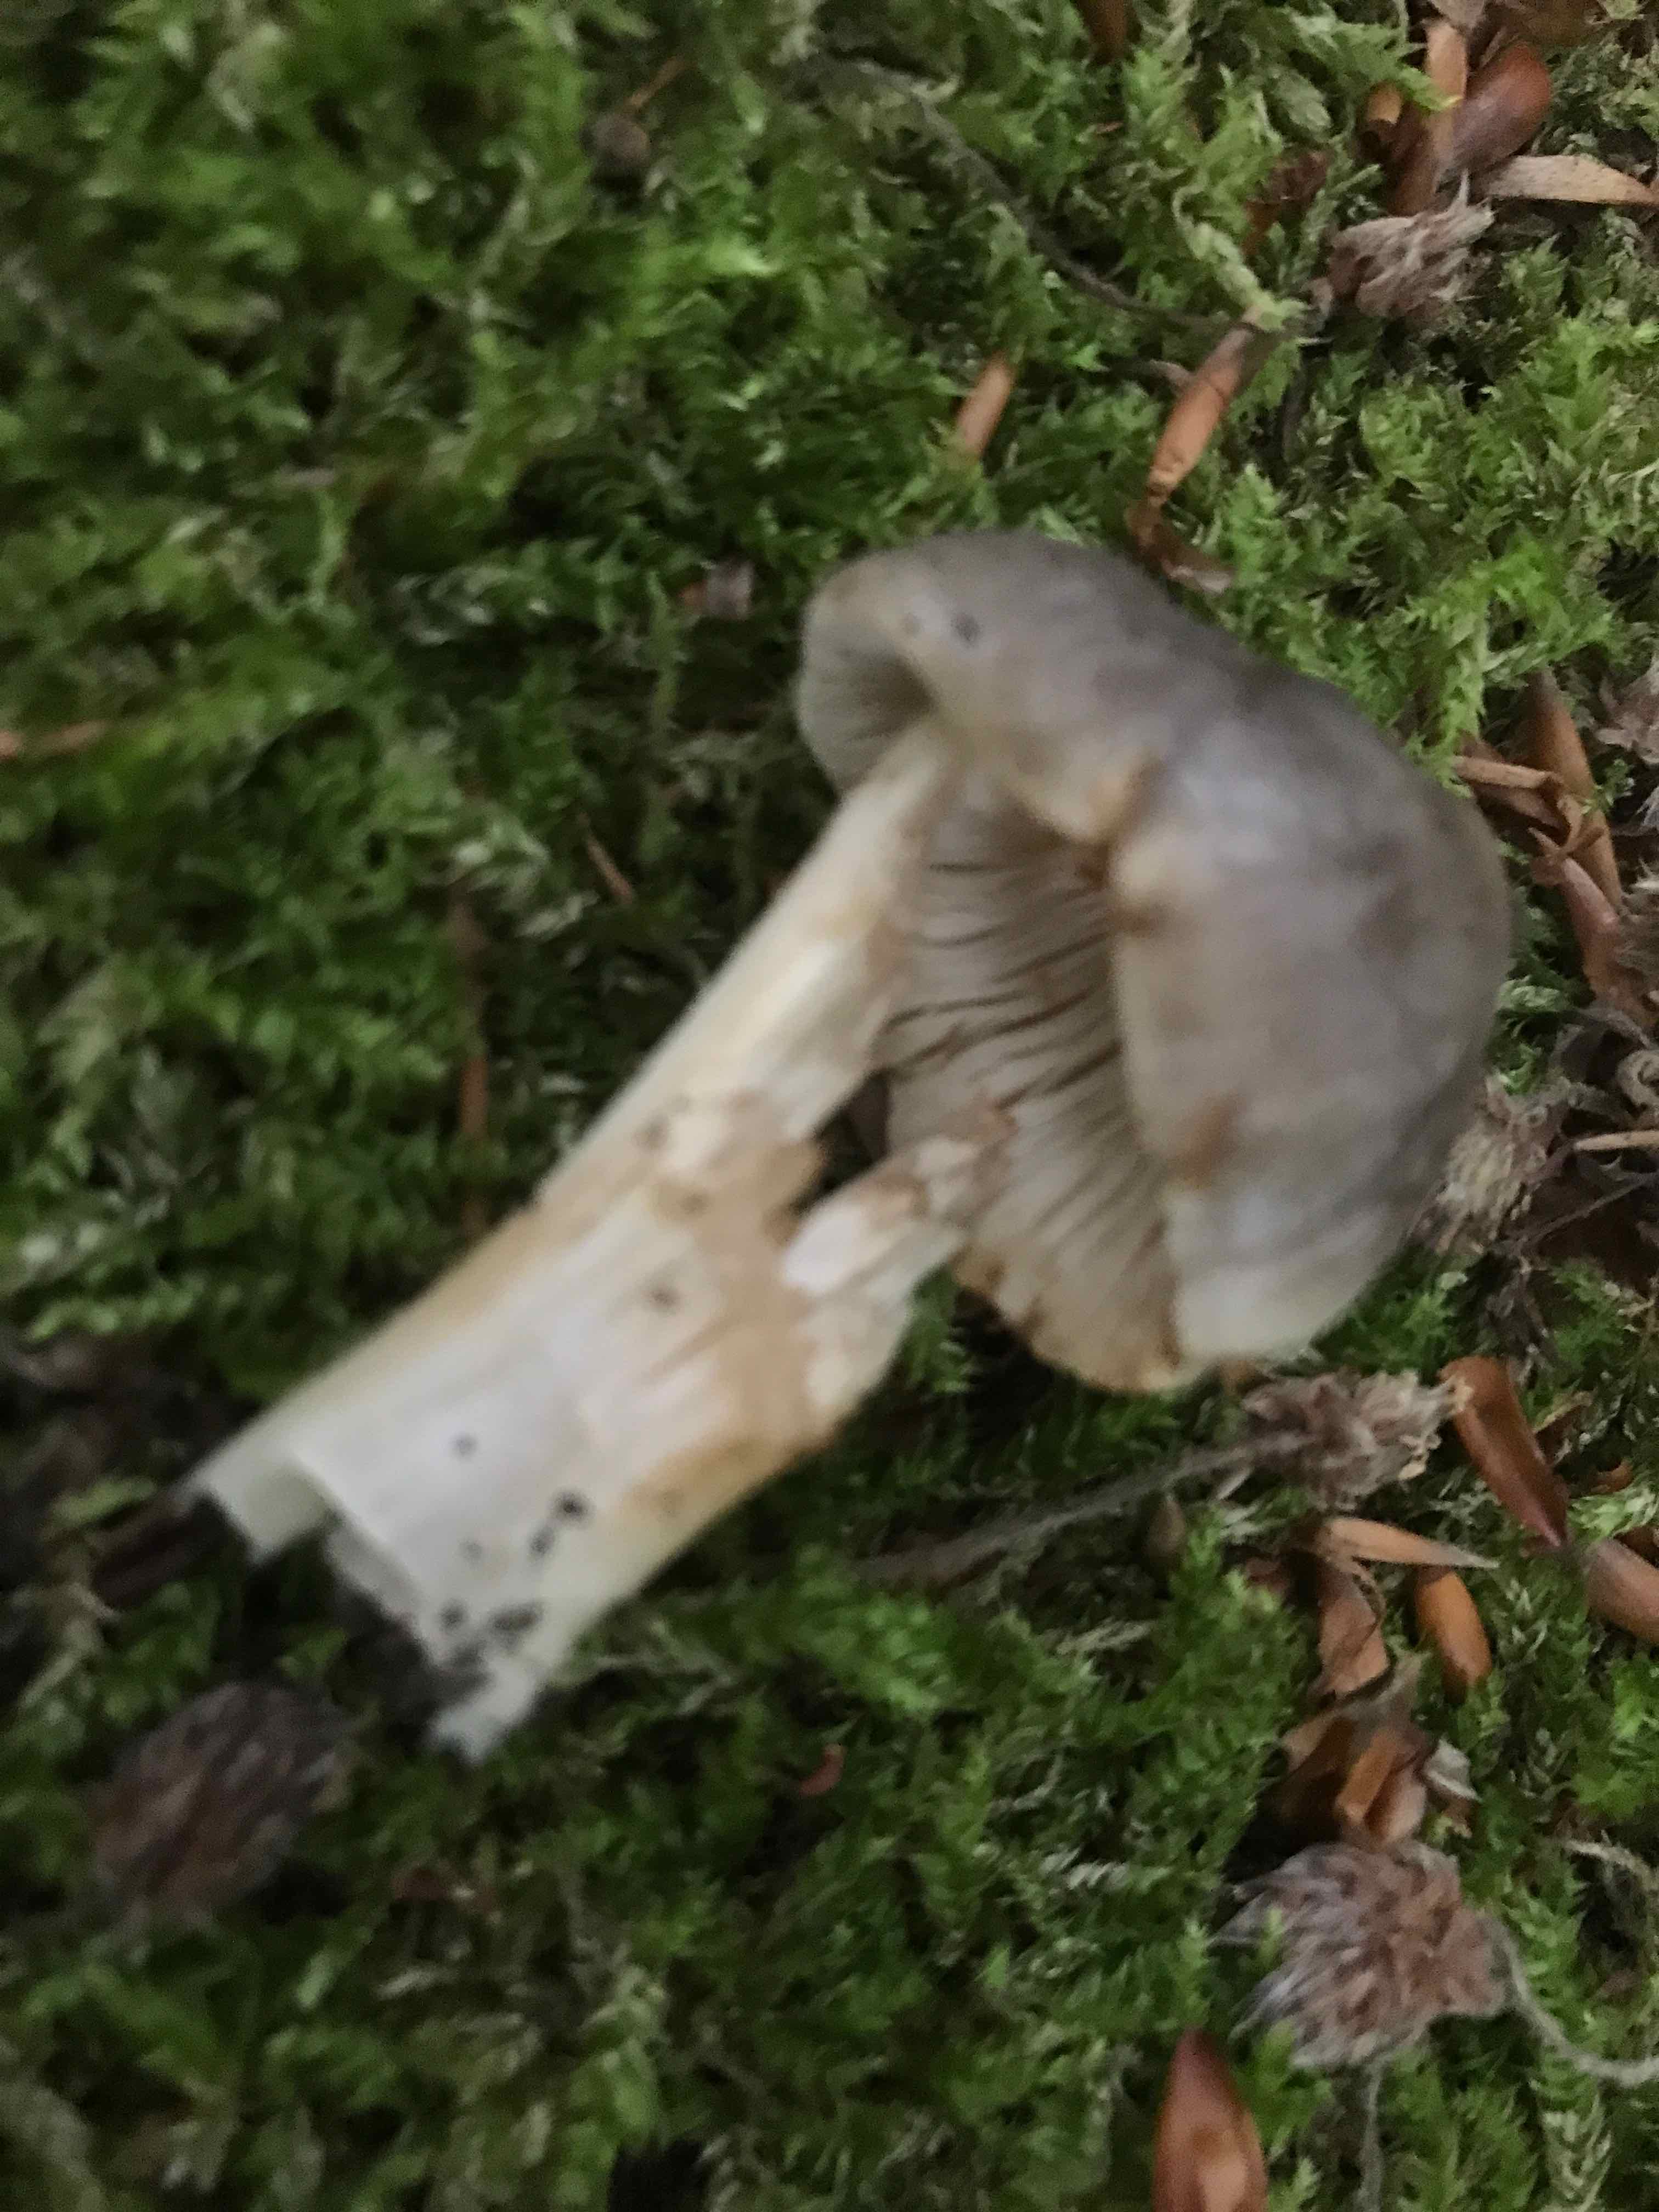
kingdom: Fungi
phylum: Basidiomycota
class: Agaricomycetes
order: Agaricales
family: Pluteaceae
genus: Pluteus
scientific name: Pluteus
